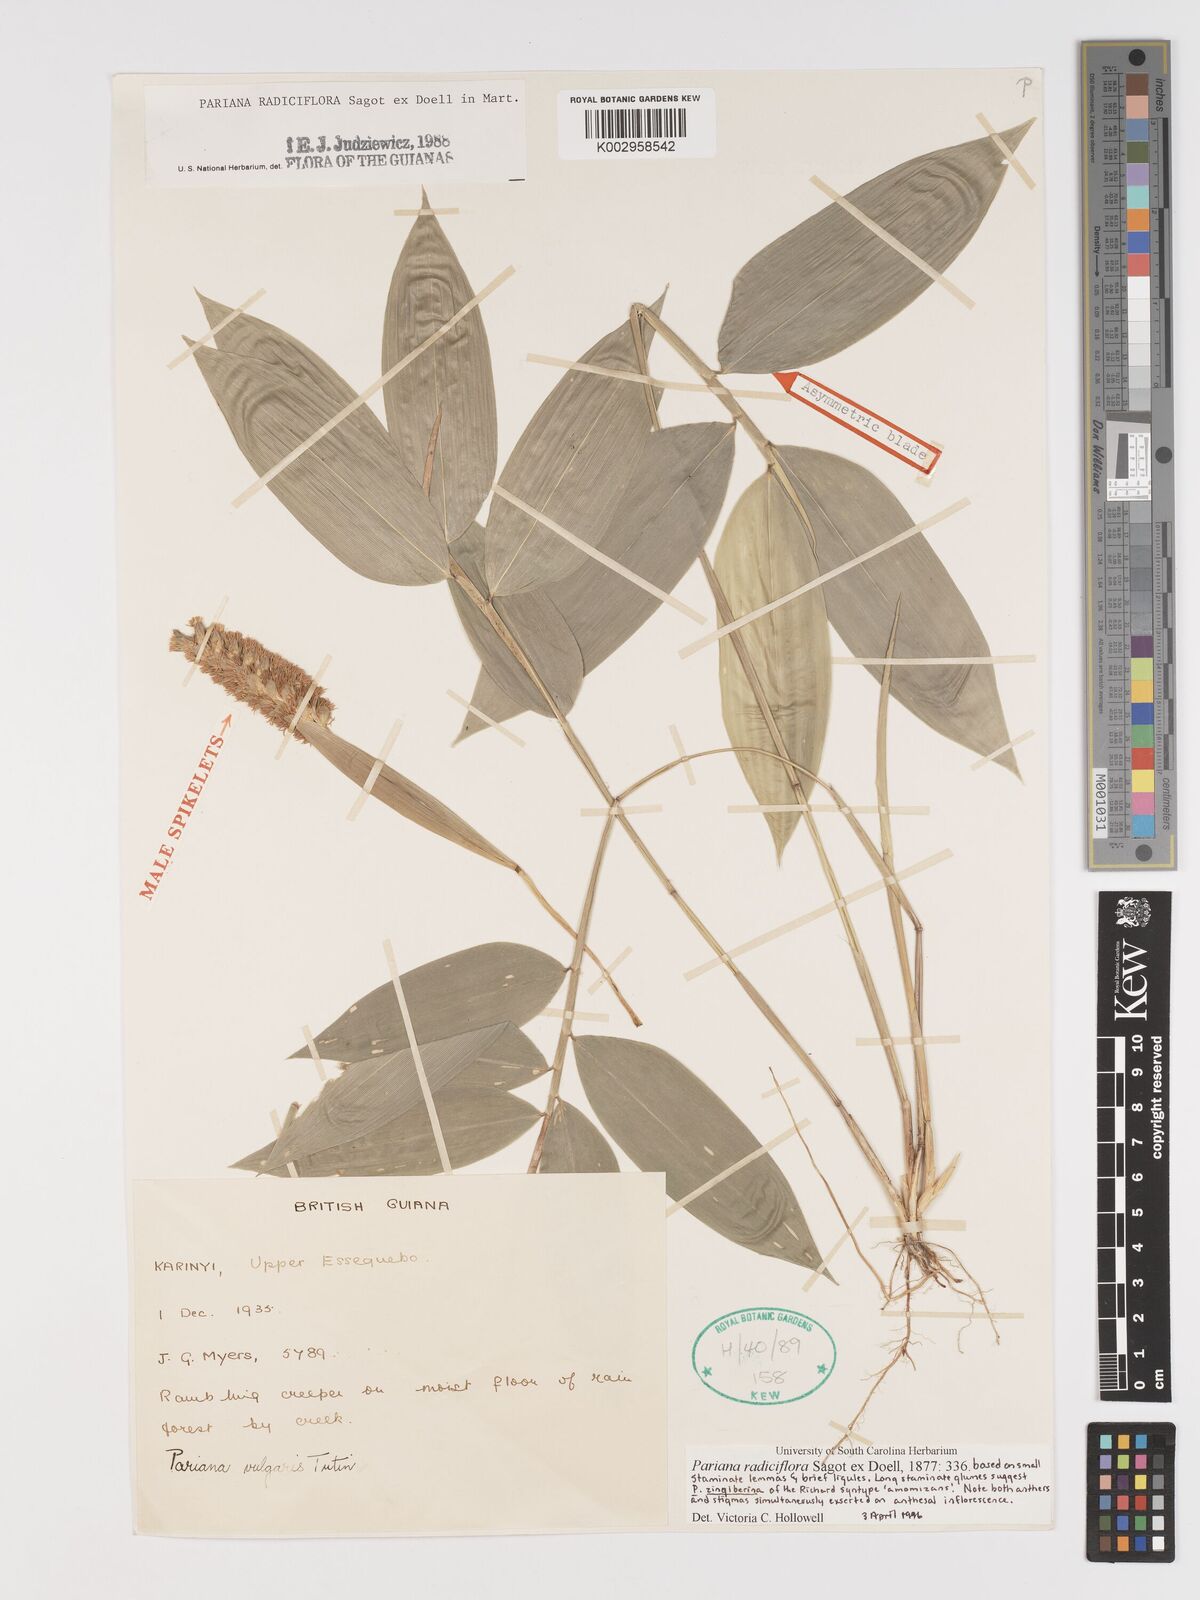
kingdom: Plantae
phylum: Tracheophyta
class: Liliopsida
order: Poales
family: Poaceae
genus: Pariana
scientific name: Pariana radiciflora
